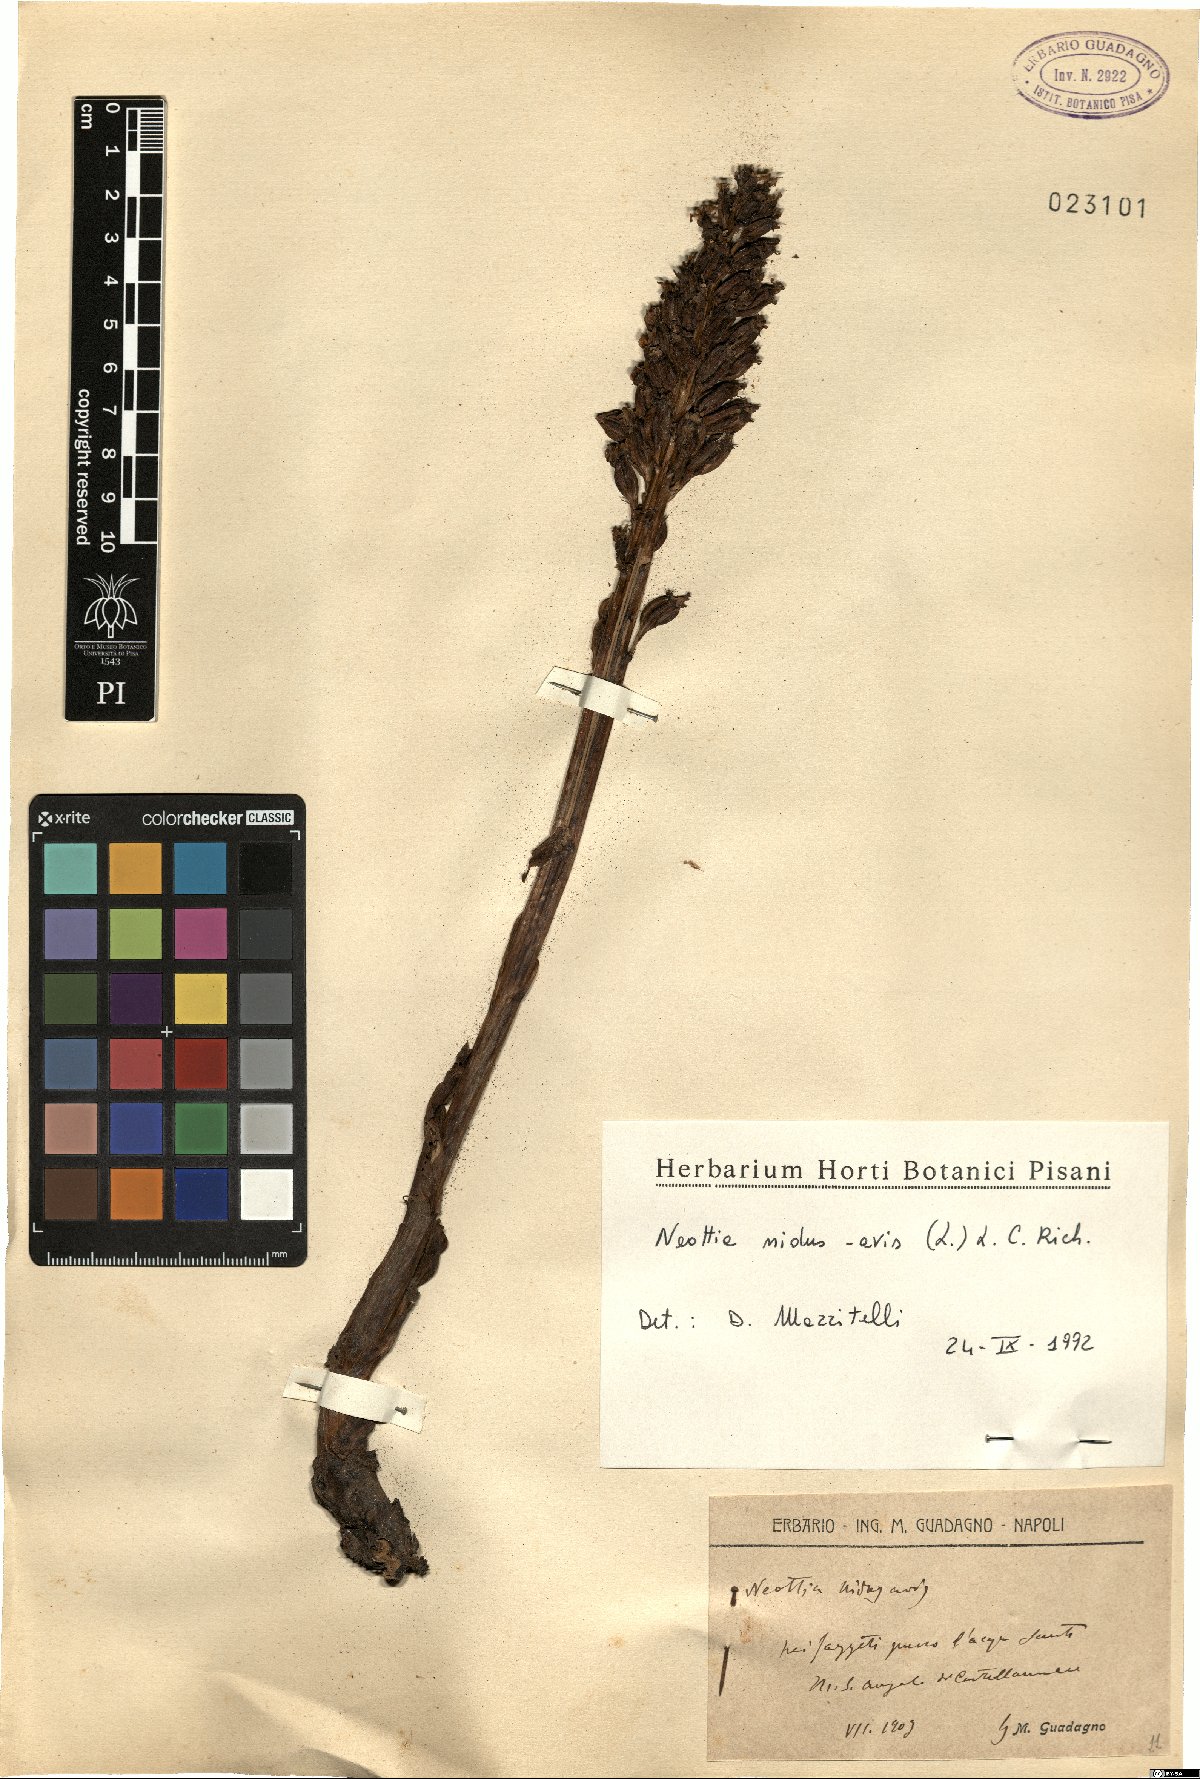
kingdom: Plantae
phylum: Tracheophyta
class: Liliopsida
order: Asparagales
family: Orchidaceae
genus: Neottia
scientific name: Neottia nidus-avis
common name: Bird's-nest orchid
